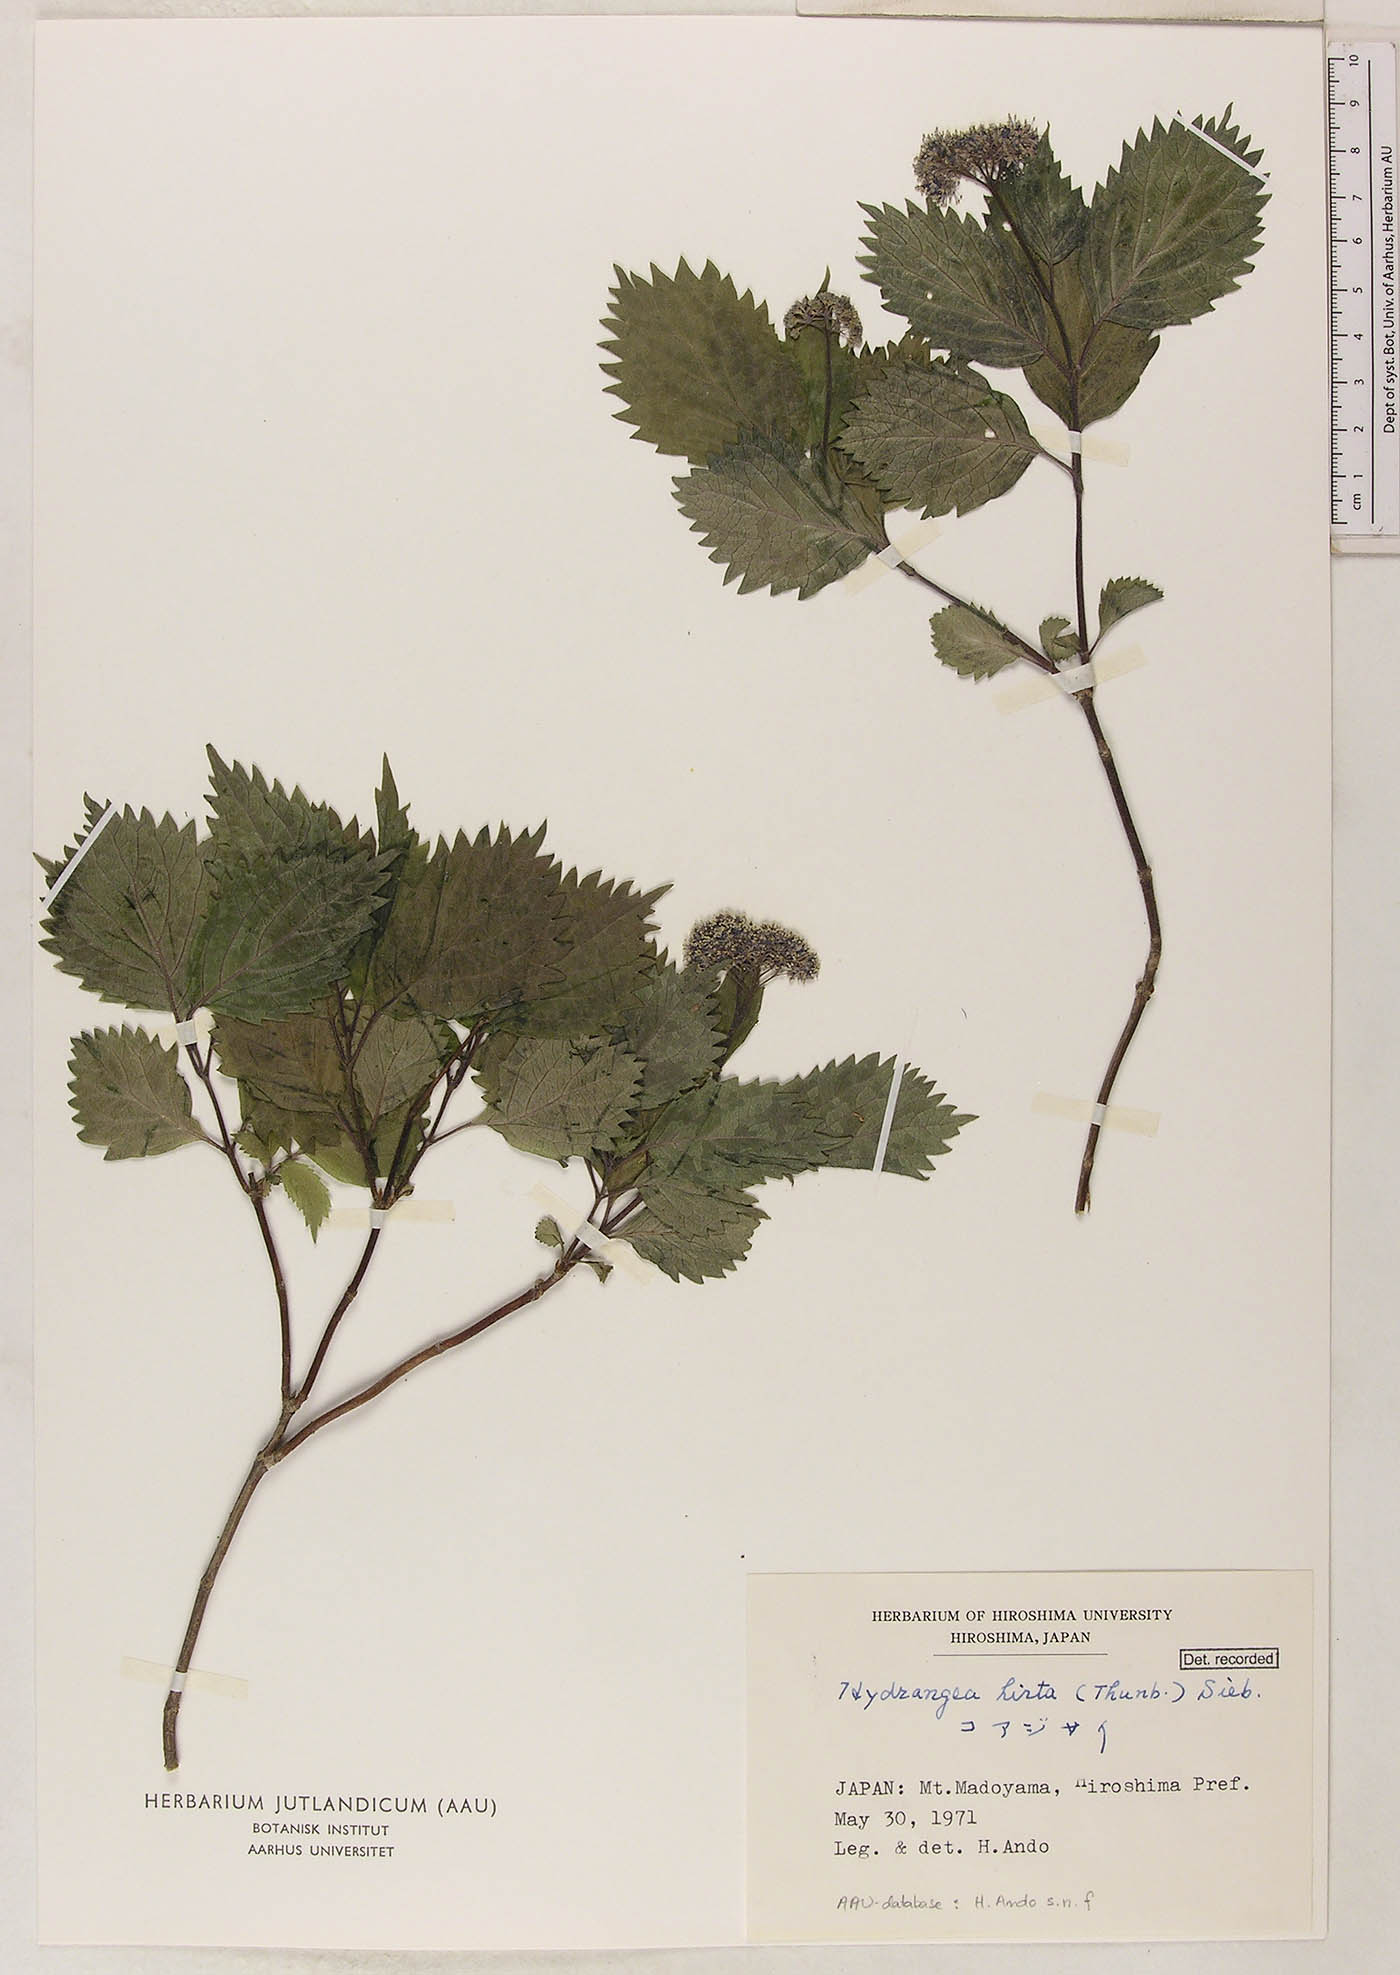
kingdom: Plantae
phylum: Tracheophyta
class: Magnoliopsida
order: Cornales
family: Hydrangeaceae
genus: Hydrangea
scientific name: Hydrangea hirta
